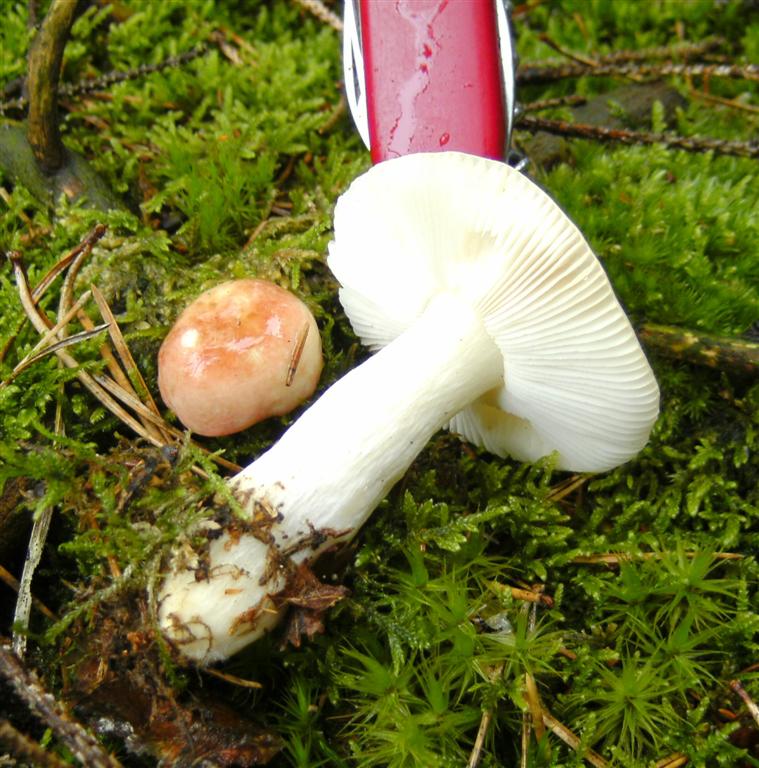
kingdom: Fungi
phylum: Basidiomycota
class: Agaricomycetes
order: Russulales
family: Russulaceae
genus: Russula
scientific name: Russula
